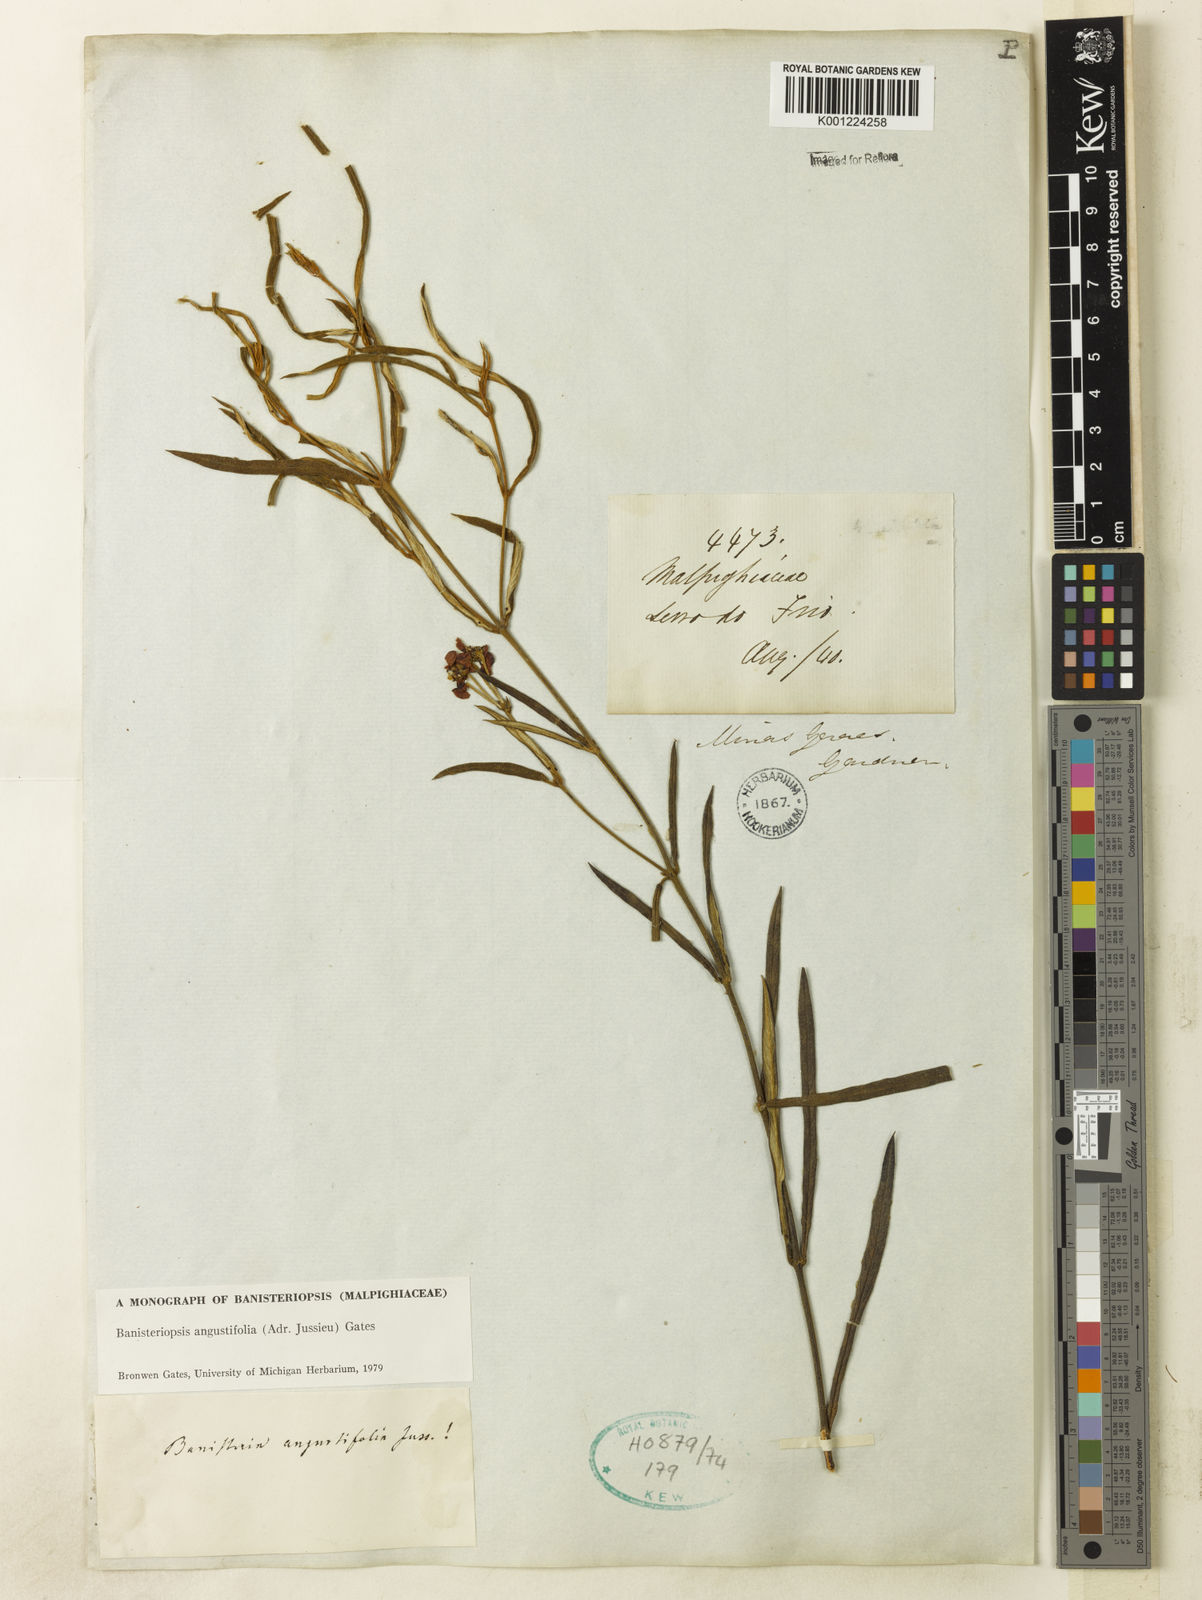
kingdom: Plantae
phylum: Tracheophyta
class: Magnoliopsida
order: Malpighiales
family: Malpighiaceae
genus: Banisteriopsis
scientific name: Banisteriopsis angustifolia
